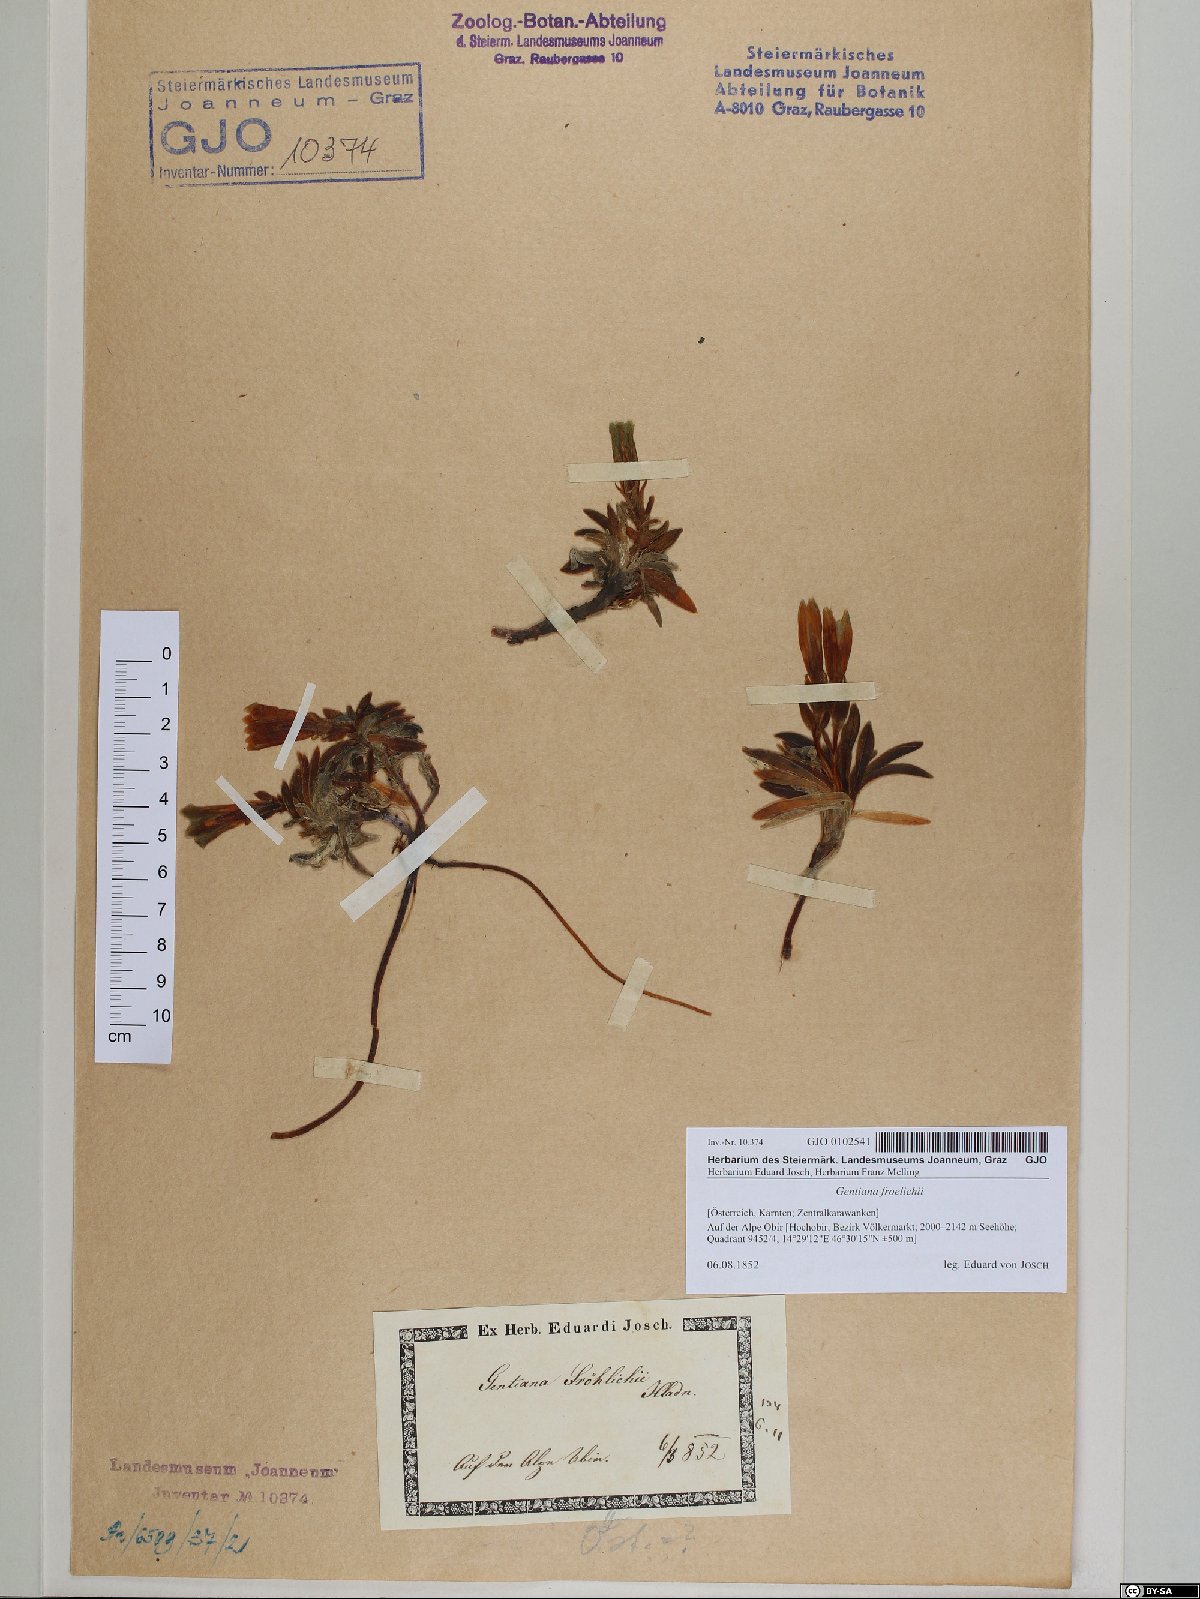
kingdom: Plantae
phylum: Tracheophyta
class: Magnoliopsida
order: Gentianales
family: Gentianaceae
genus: Gentiana
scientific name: Gentiana froelichii
